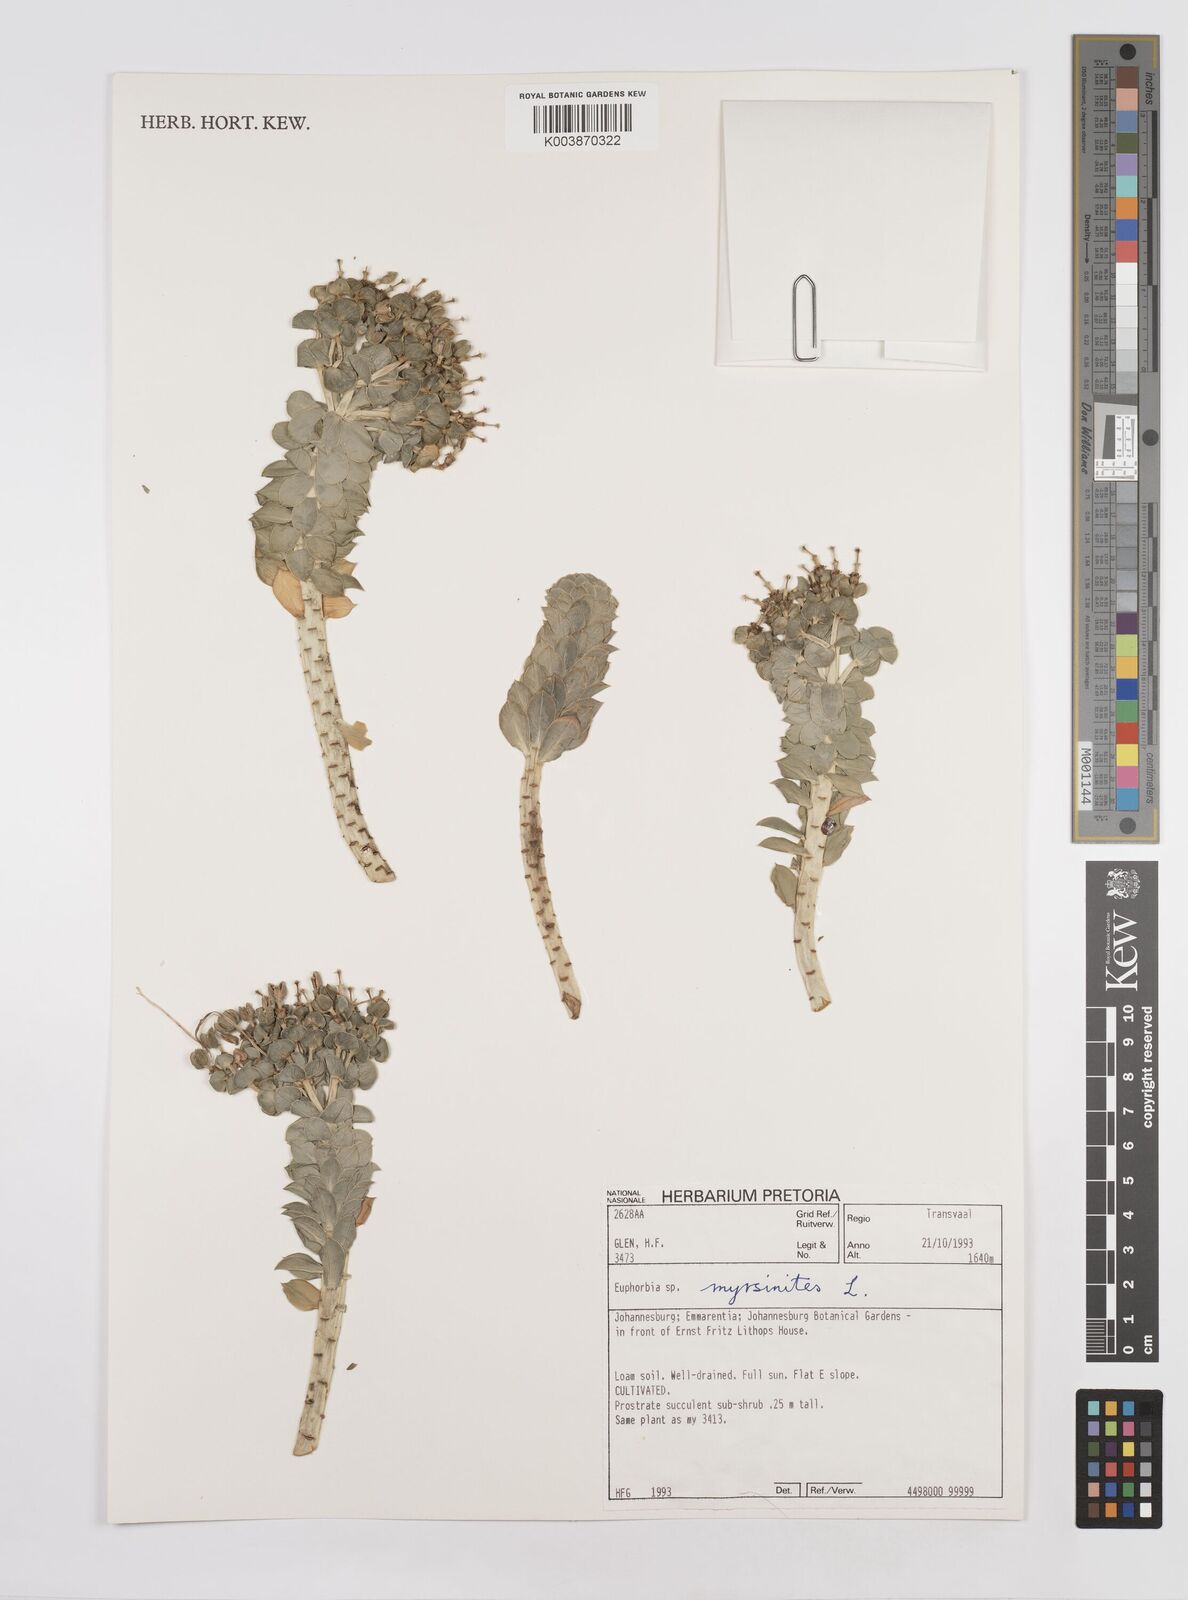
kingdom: Plantae
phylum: Tracheophyta
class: Magnoliopsida
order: Malpighiales
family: Euphorbiaceae
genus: Euphorbia
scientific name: Euphorbia myrsinites
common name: Myrtle spurge
